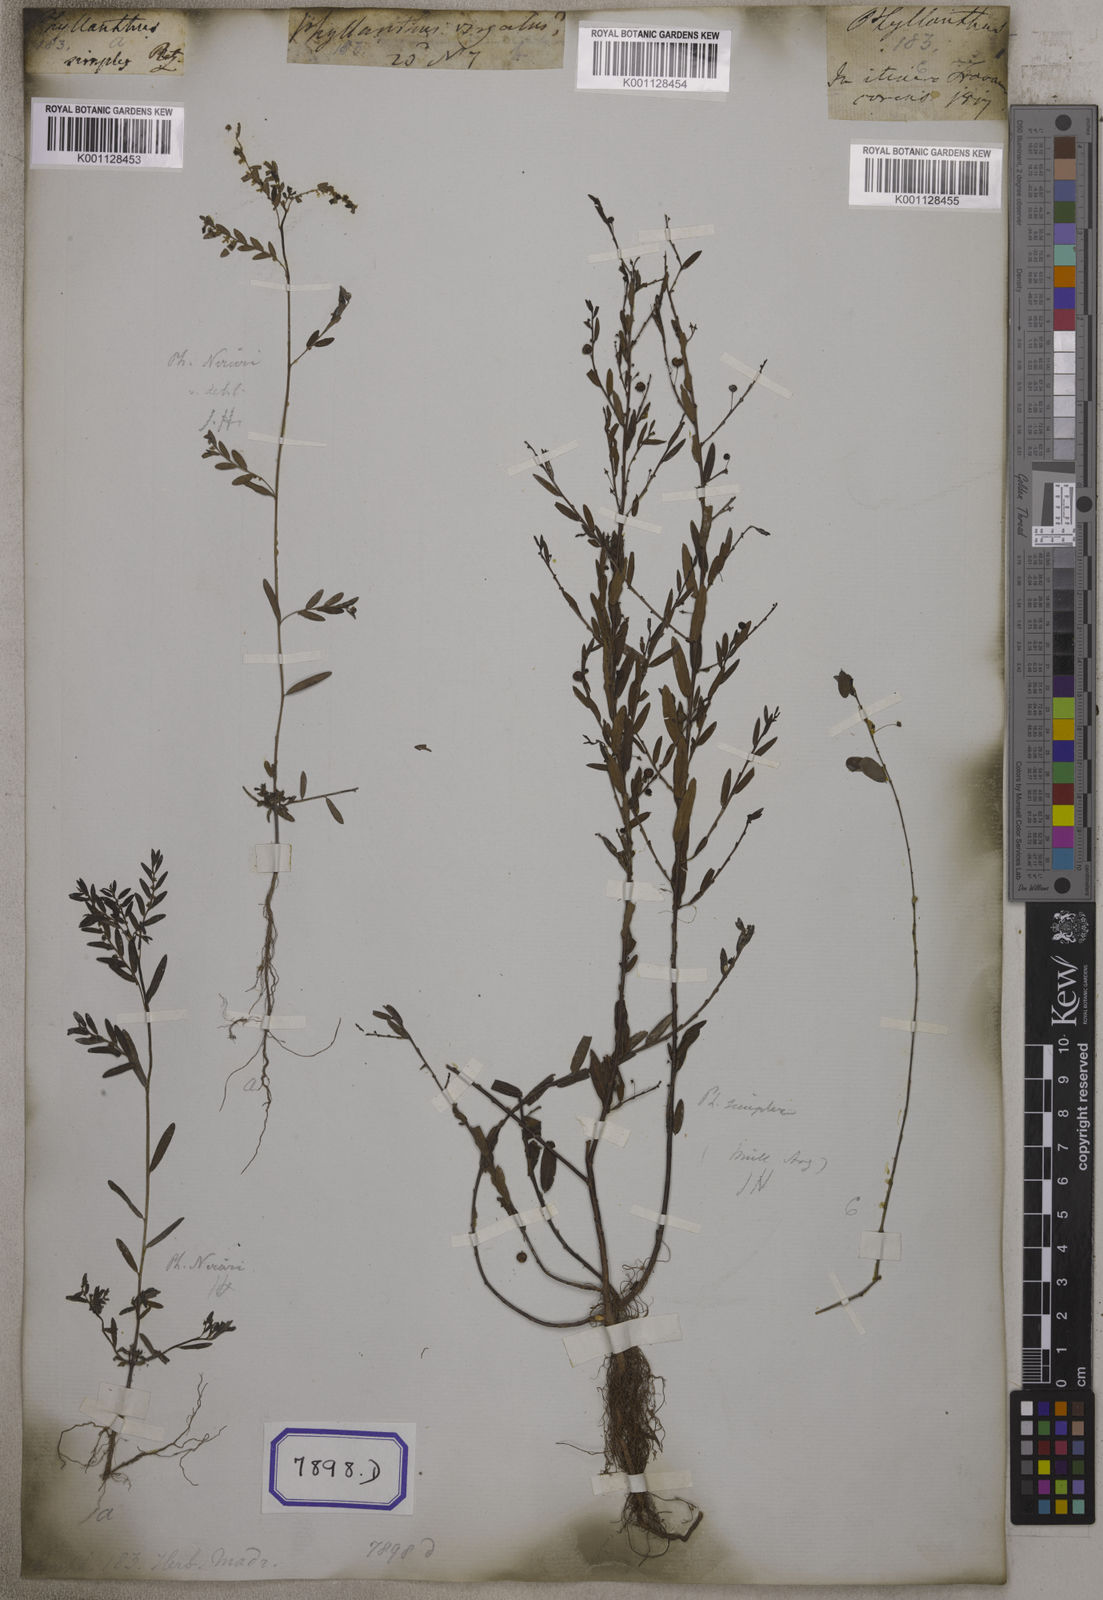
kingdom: Plantae
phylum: Tracheophyta
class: Magnoliopsida
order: Malpighiales
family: Euphorbiaceae
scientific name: Euphorbiaceae
